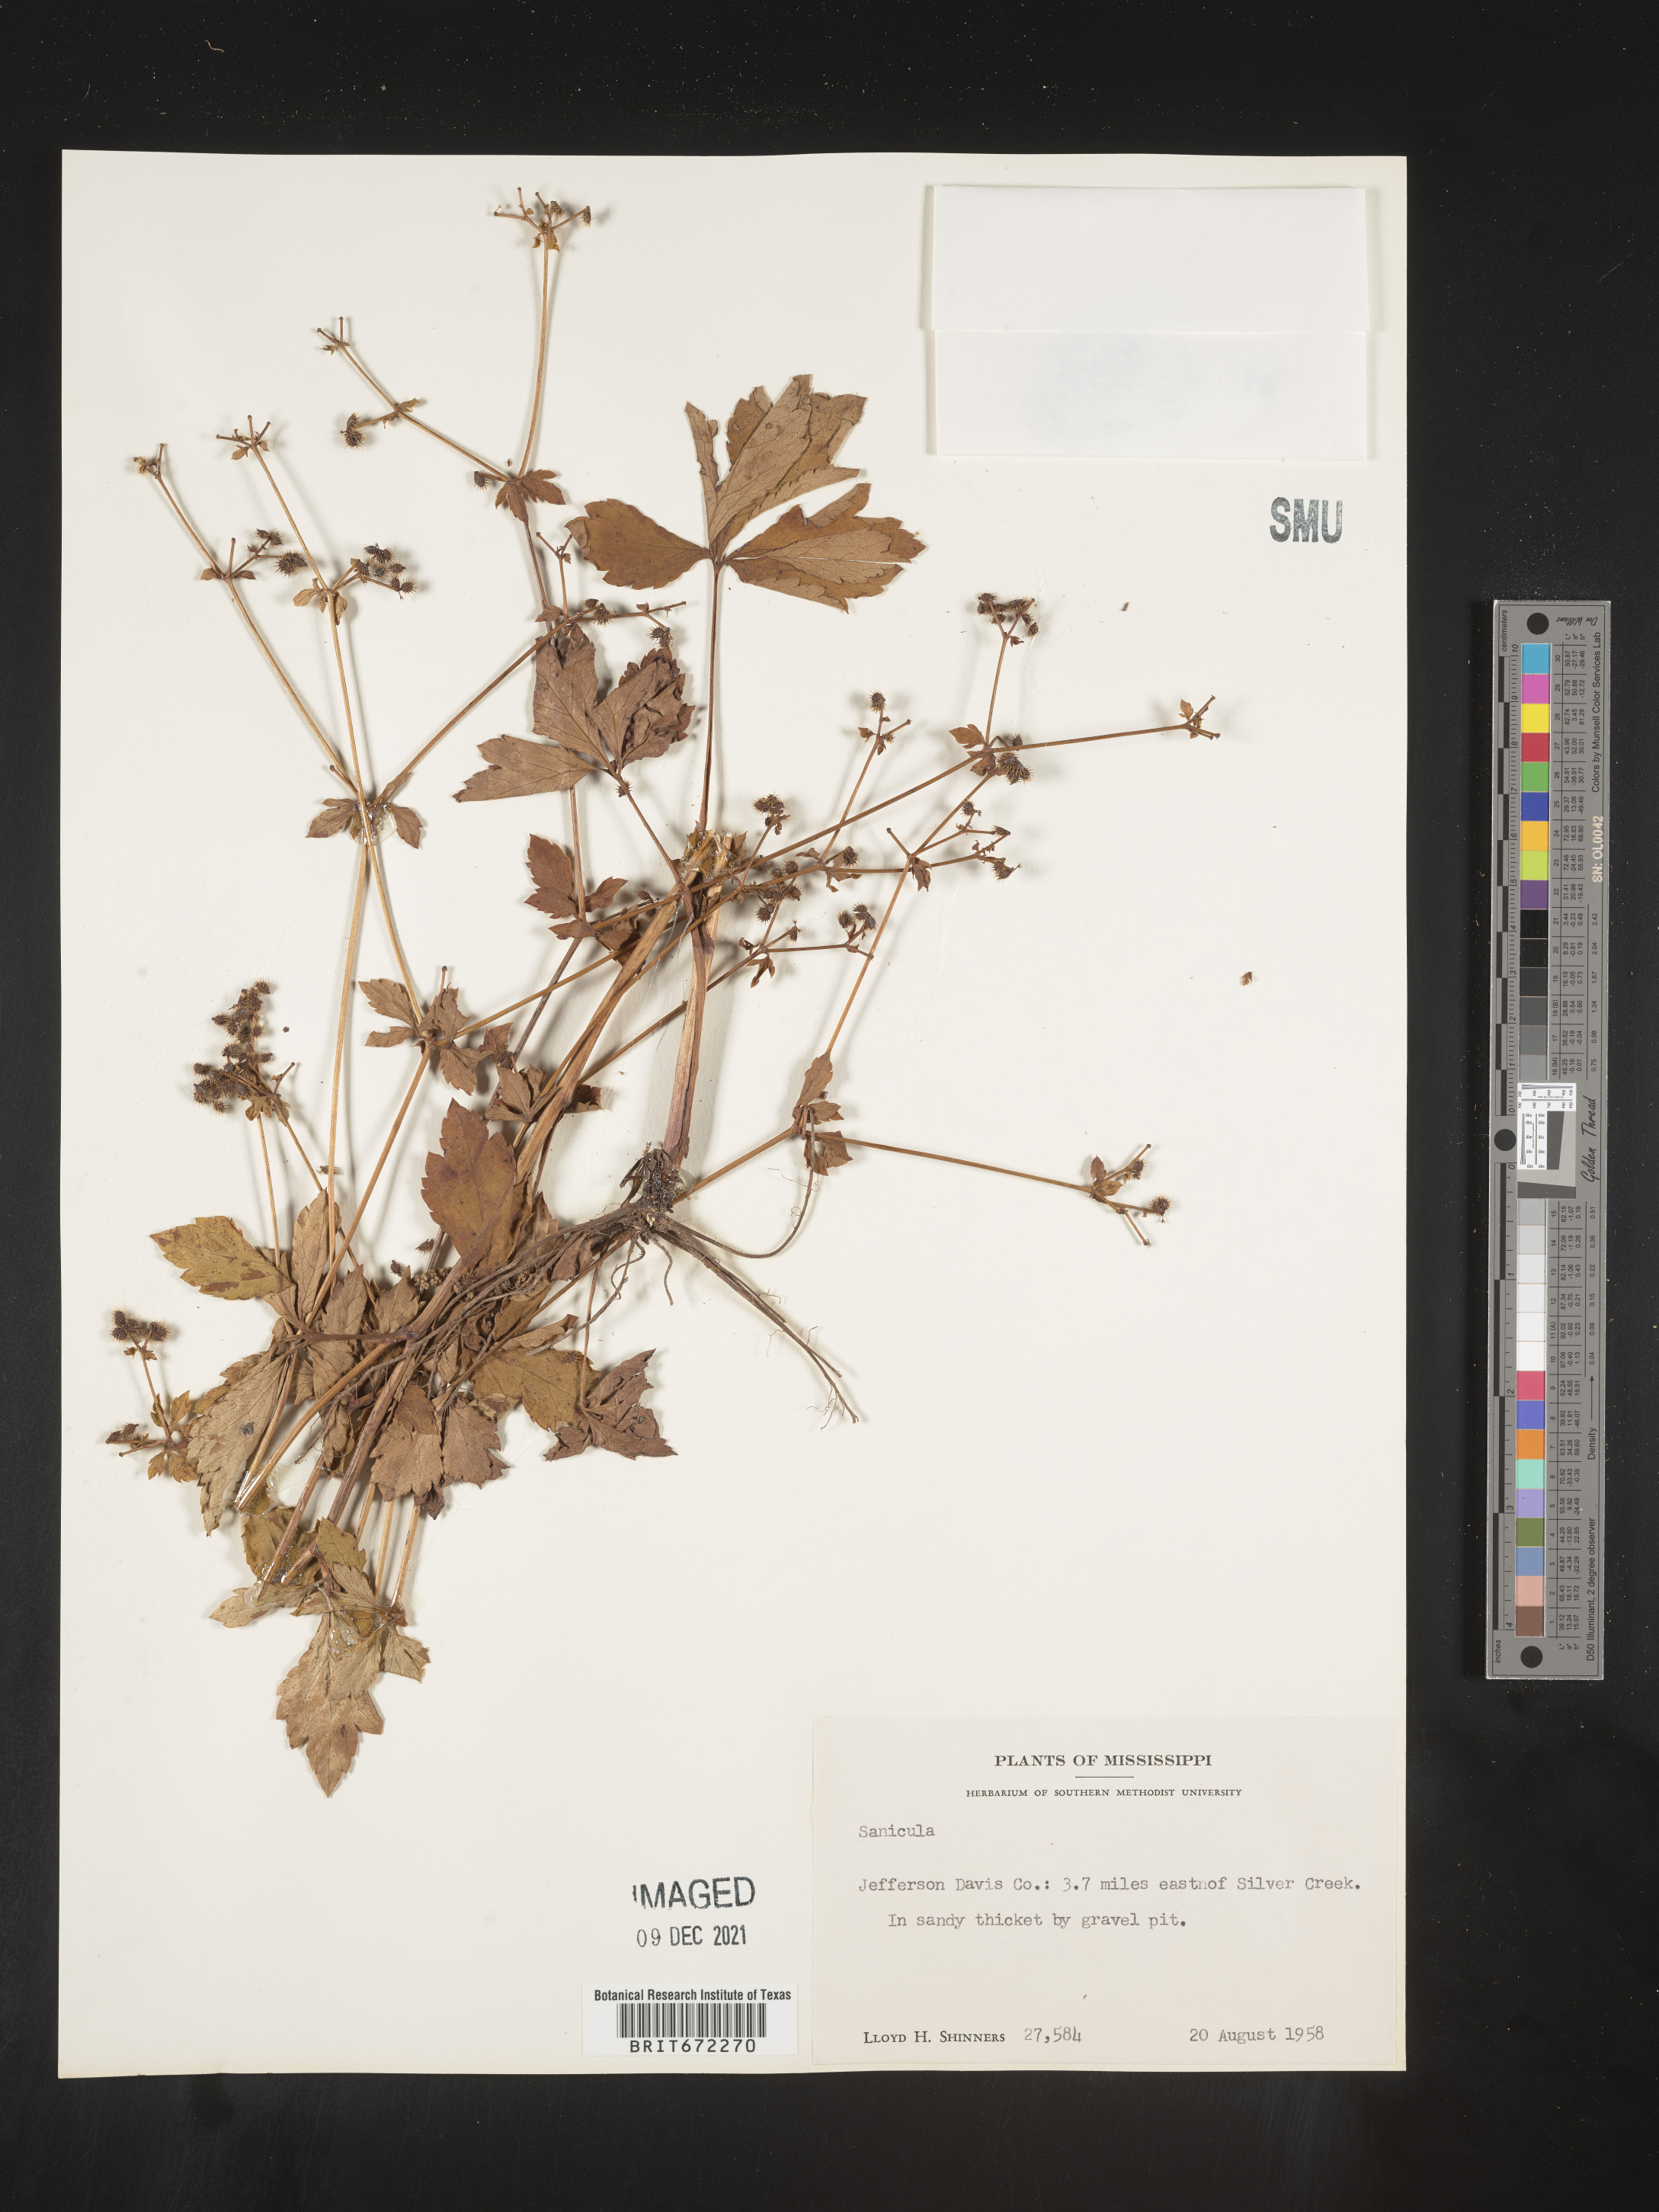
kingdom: Plantae
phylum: Tracheophyta
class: Magnoliopsida
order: Apiales
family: Apiaceae
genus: Sanicula
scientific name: Sanicula
